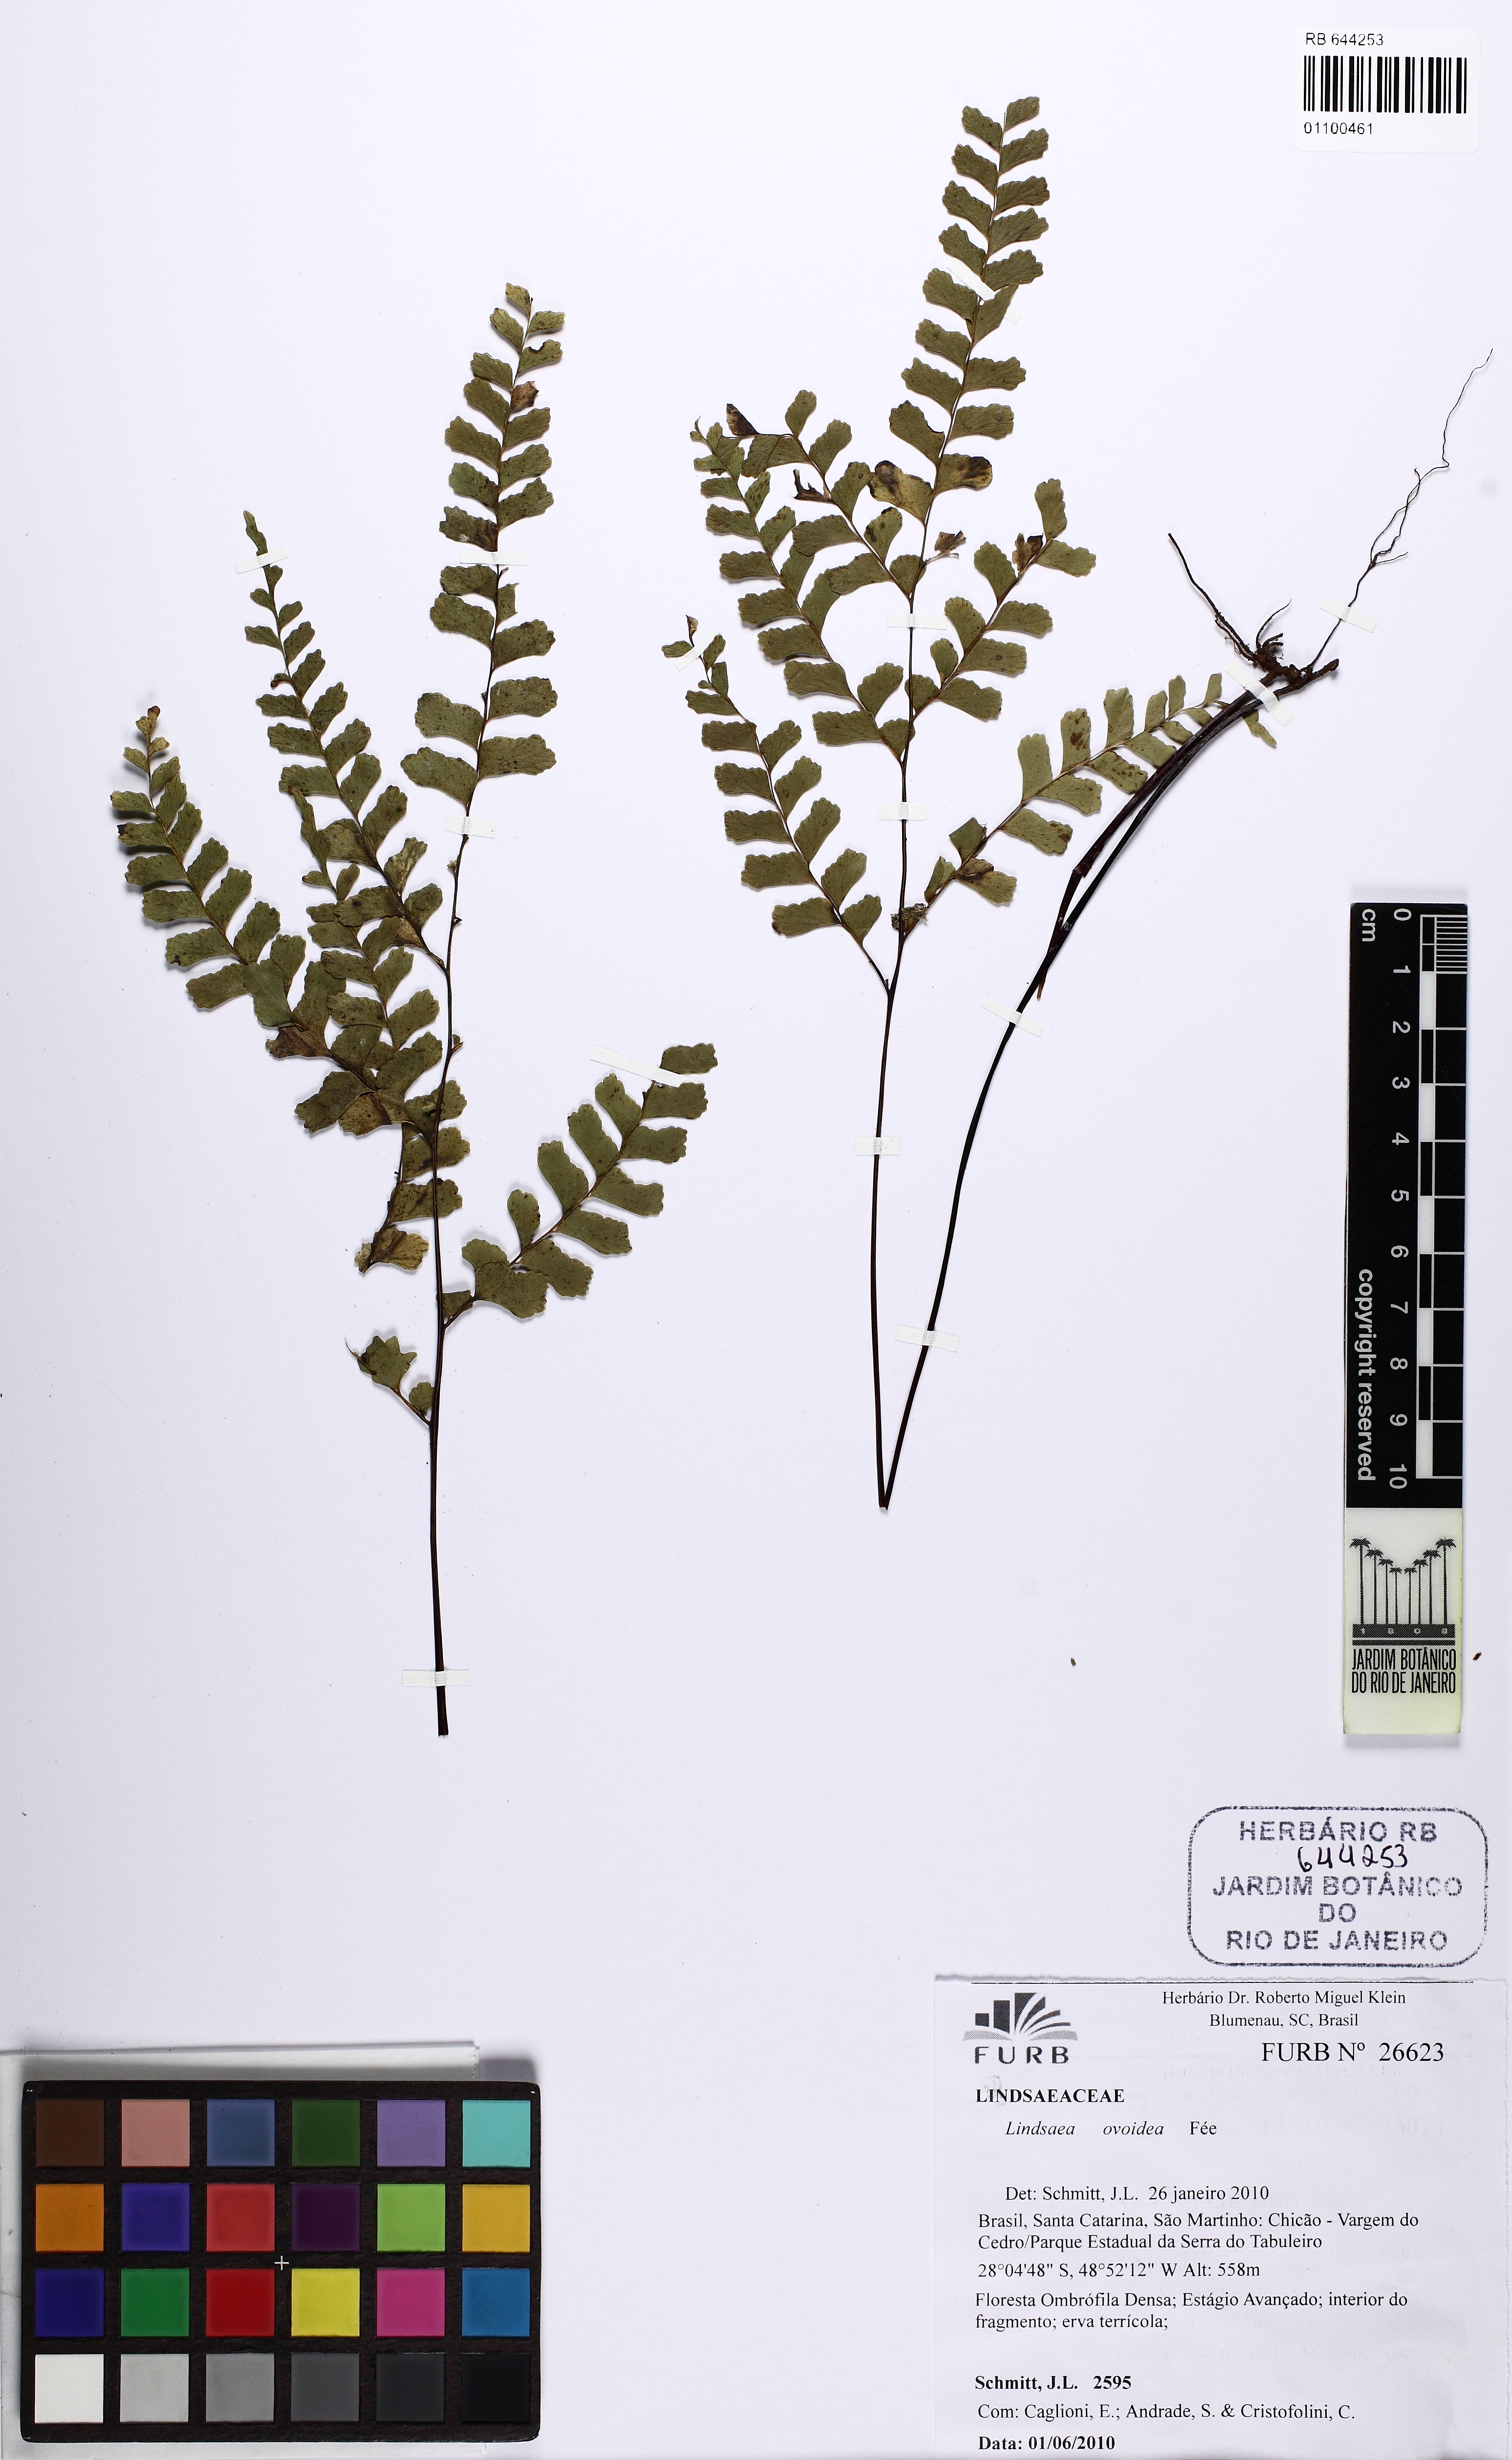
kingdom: Plantae
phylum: Tracheophyta
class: Polypodiopsida
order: Polypodiales
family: Lindsaeaceae
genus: Lindsaea
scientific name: Lindsaea ovoidea
